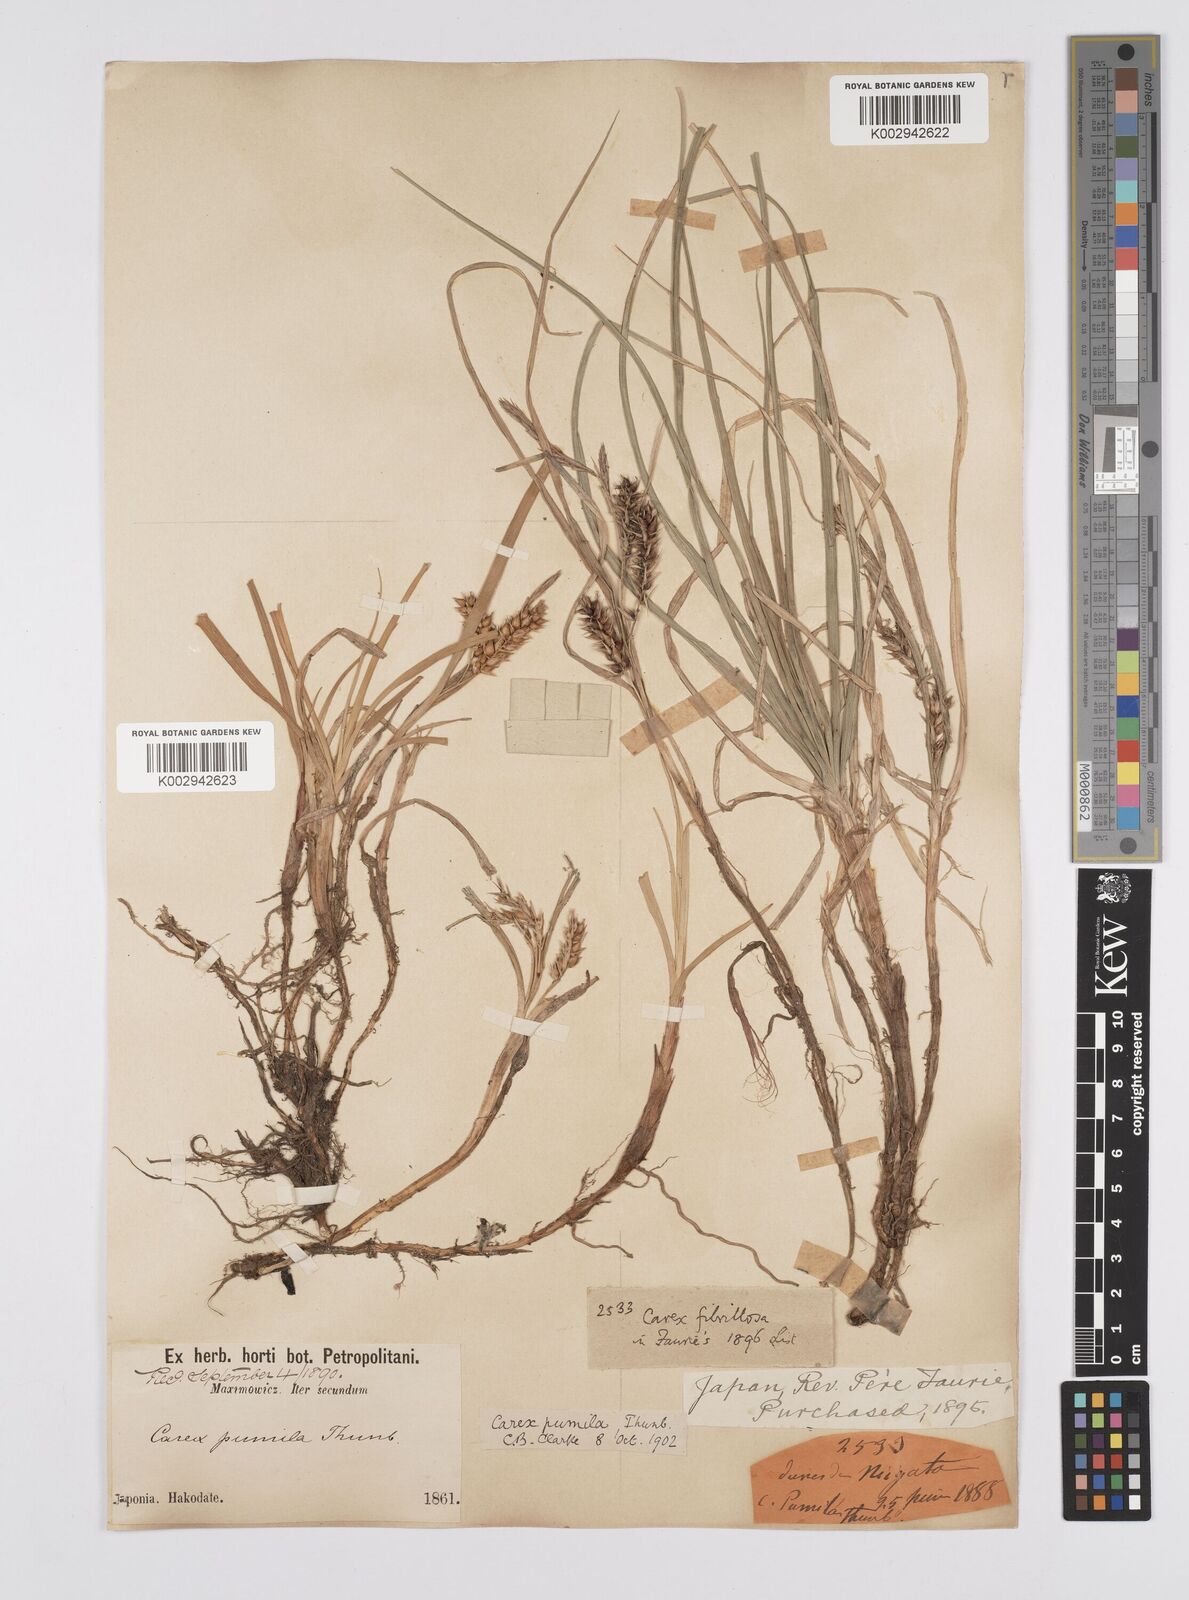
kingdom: Plantae
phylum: Tracheophyta
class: Liliopsida
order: Poales
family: Cyperaceae
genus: Carex
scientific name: Carex pumila
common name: Dwarf sedge
